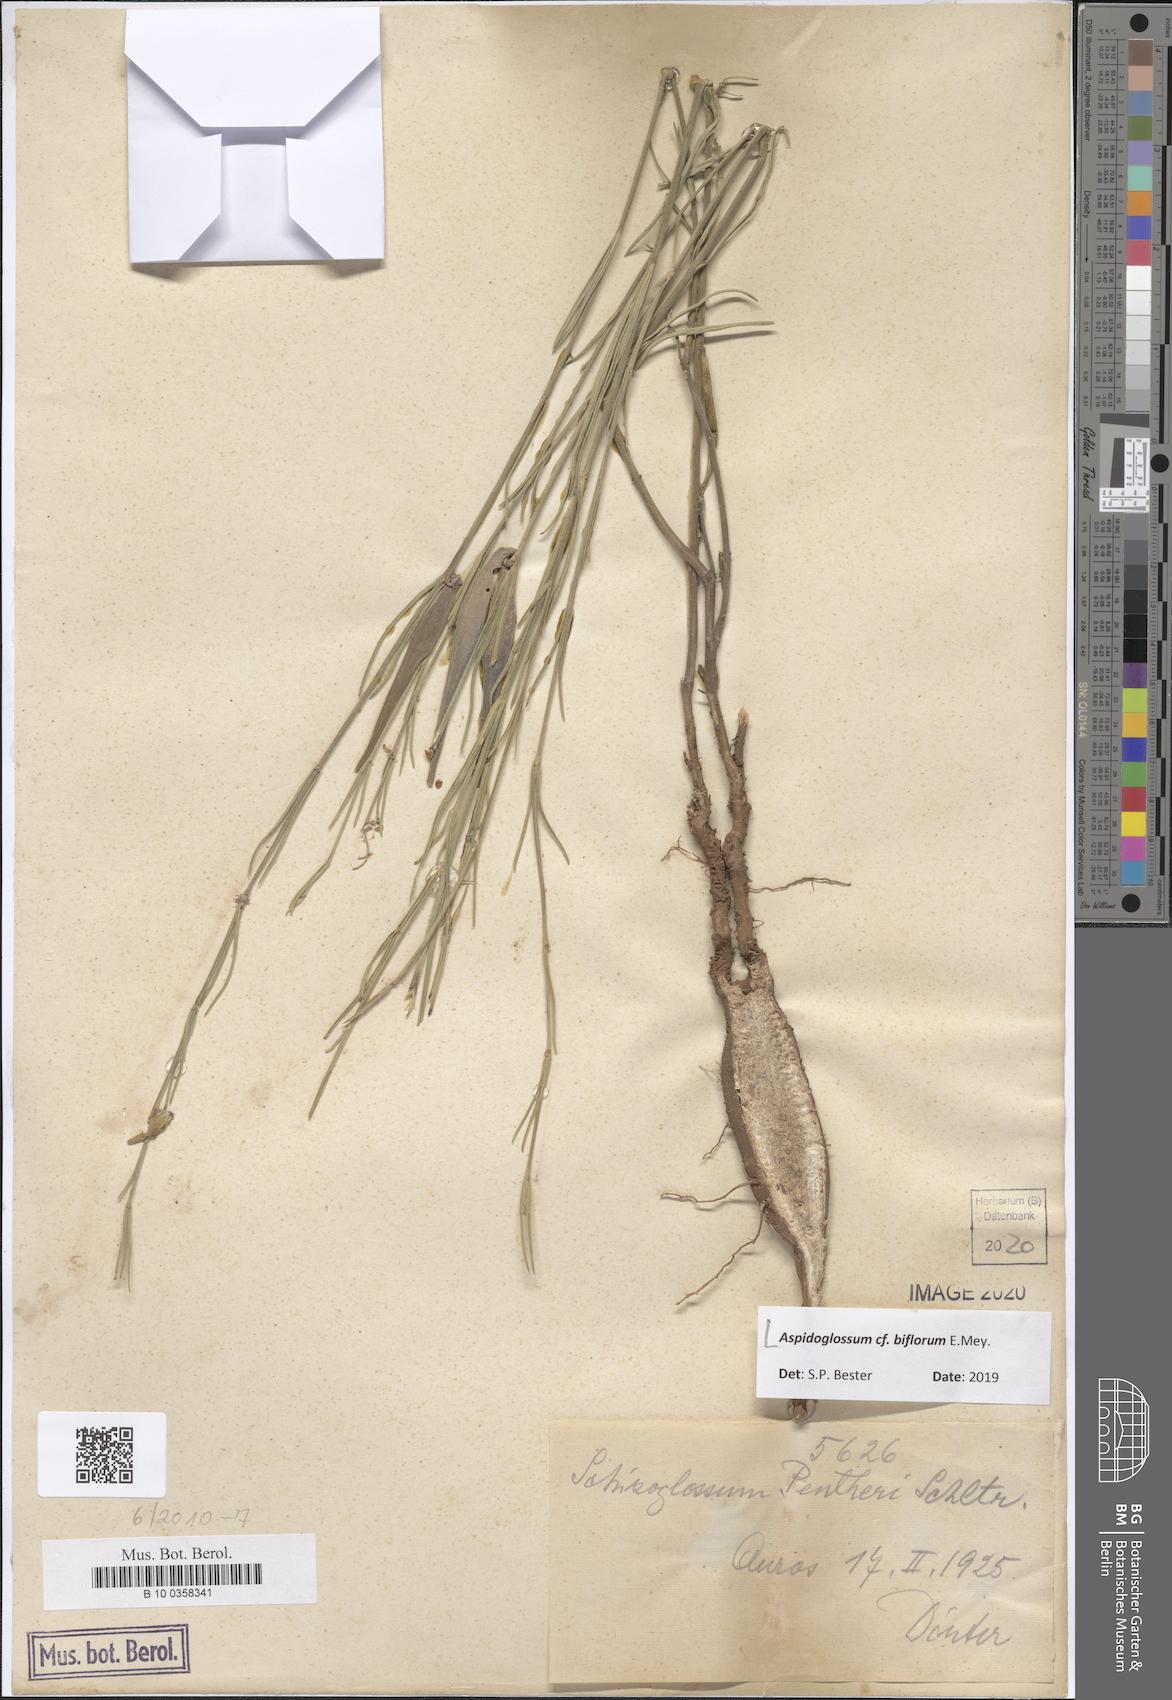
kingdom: Plantae
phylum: Tracheophyta
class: Magnoliopsida
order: Gentianales
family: Apocynaceae
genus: Aspidoglossum
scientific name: Aspidoglossum biflorum
